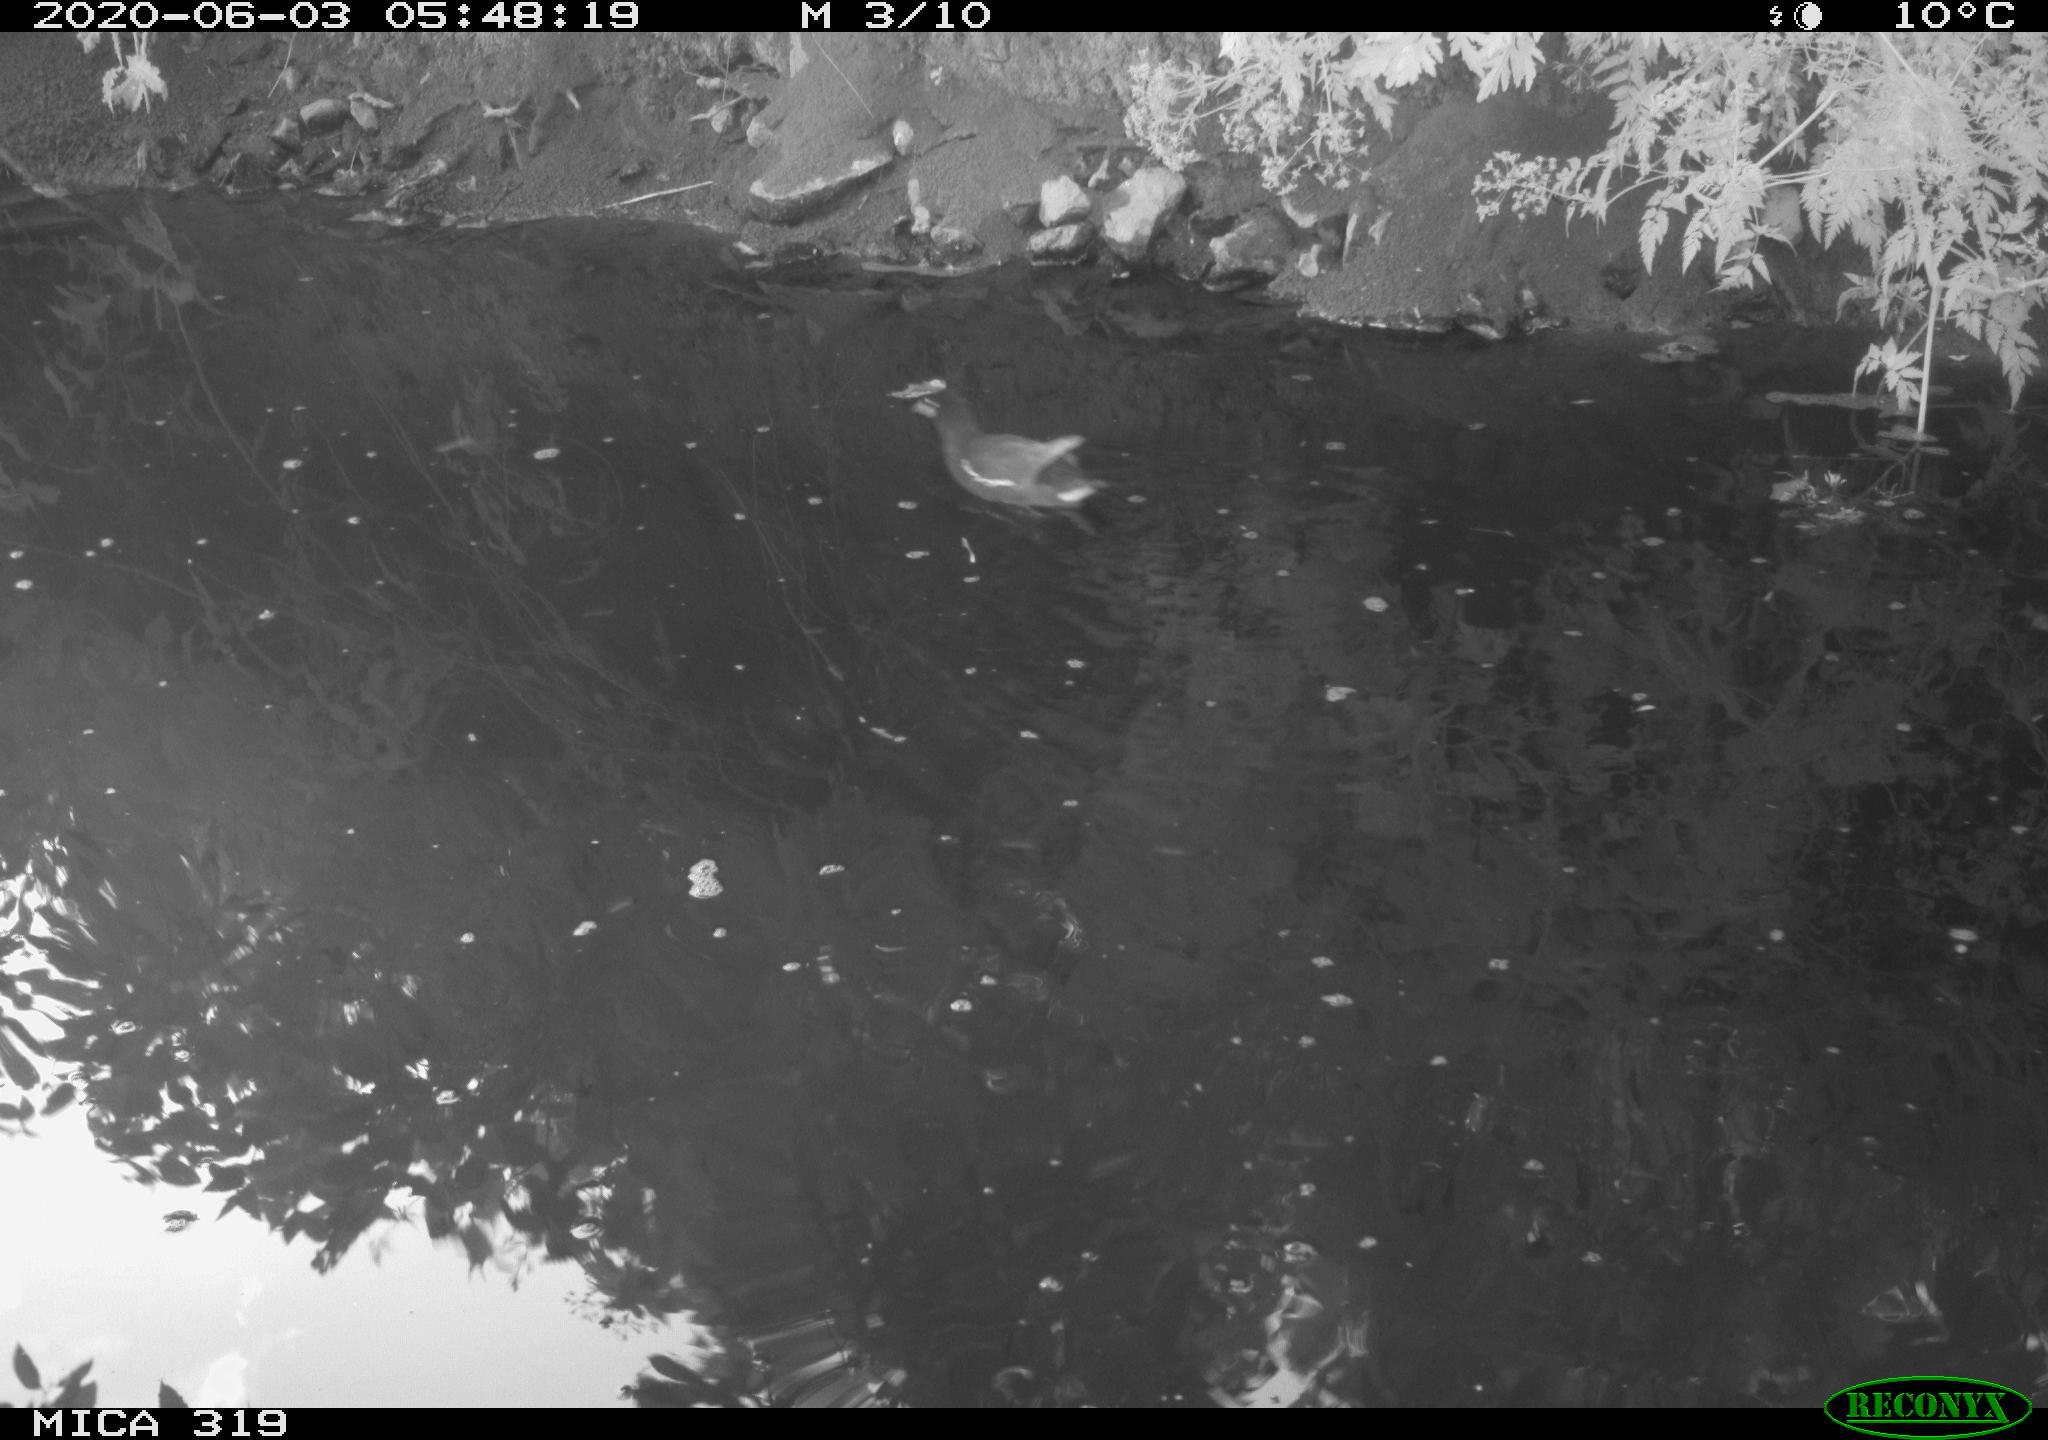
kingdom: Animalia
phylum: Chordata
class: Aves
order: Gruiformes
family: Rallidae
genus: Gallinula
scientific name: Gallinula chloropus
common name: Common moorhen
